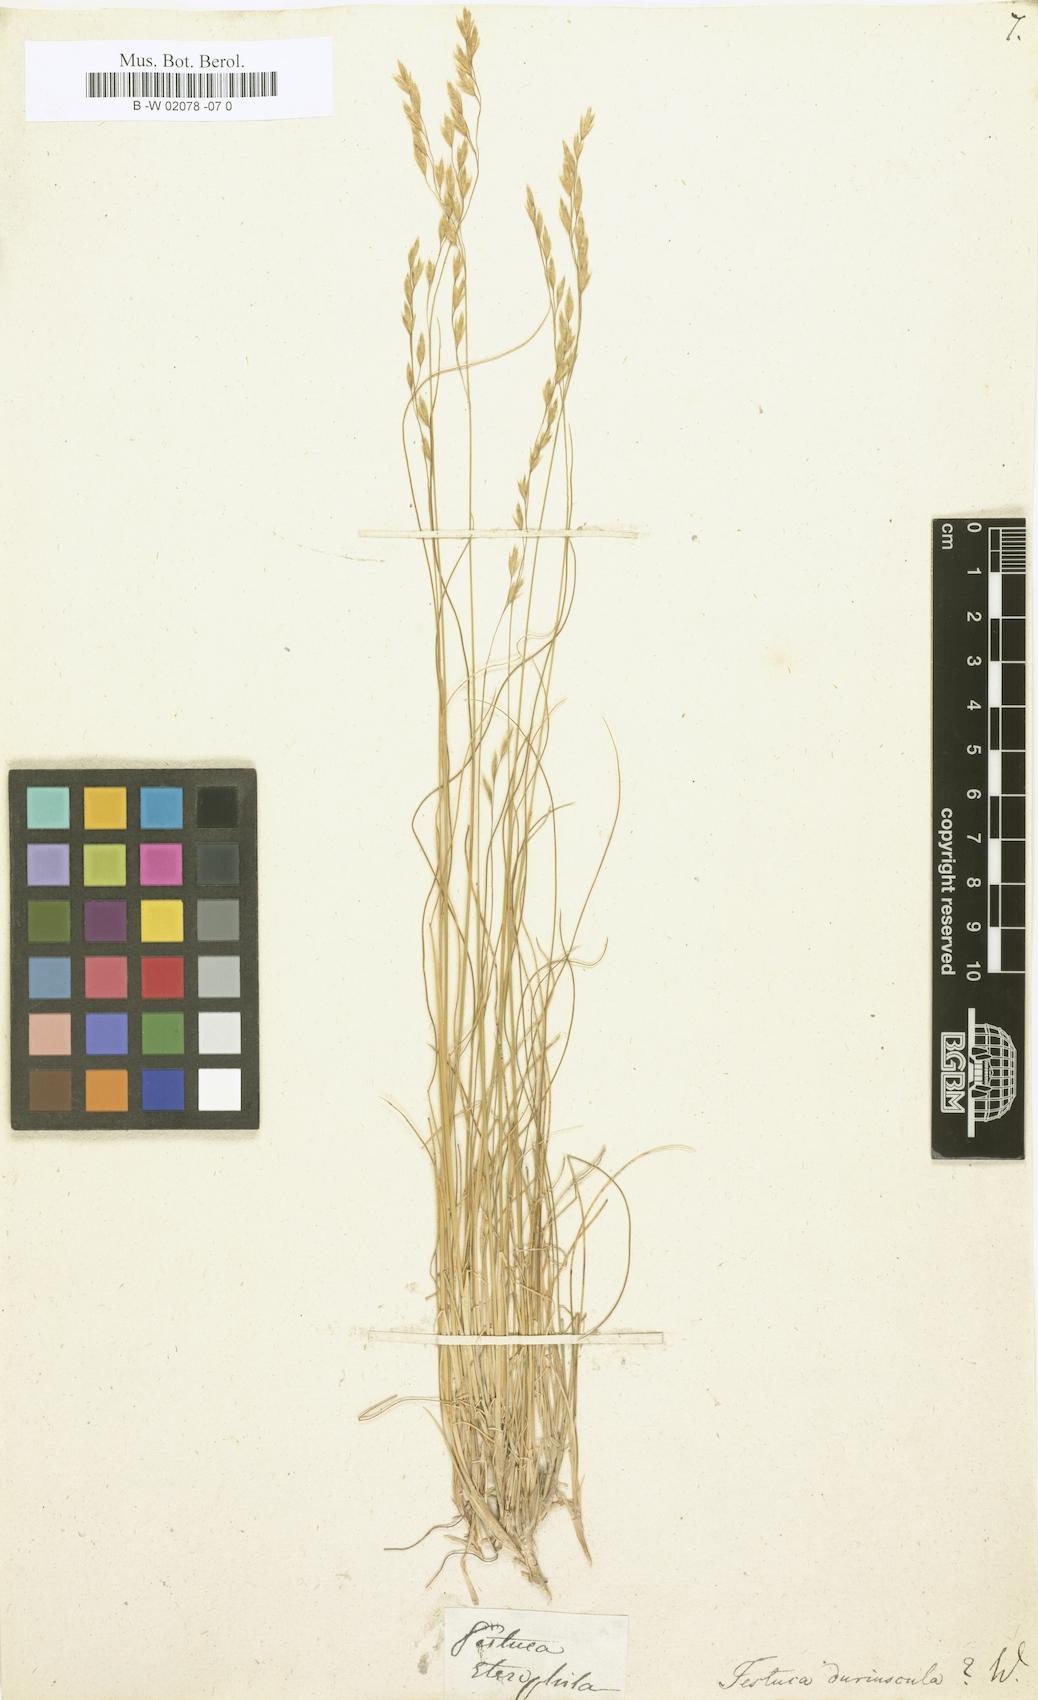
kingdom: Plantae
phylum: Tracheophyta
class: Liliopsida
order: Poales
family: Poaceae
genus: Festuca
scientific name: Festuca
